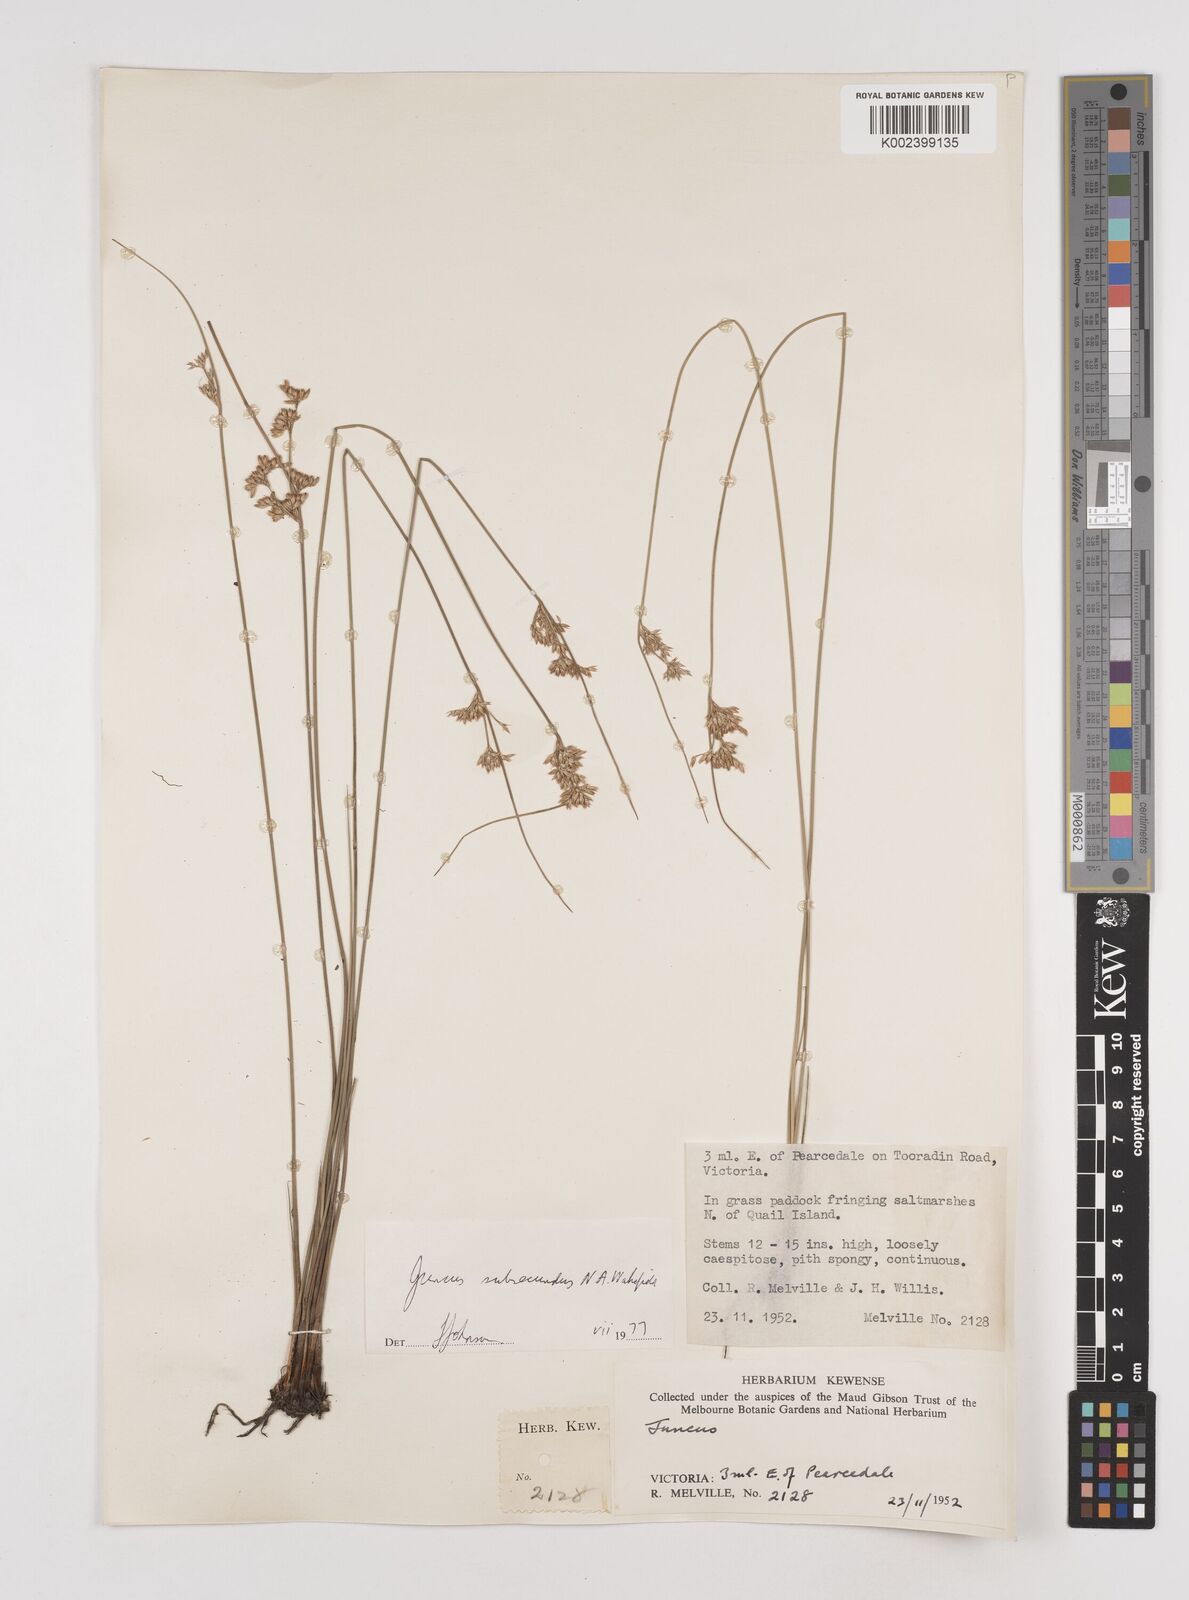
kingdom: Plantae
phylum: Tracheophyta
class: Liliopsida
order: Poales
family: Juncaceae
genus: Juncus
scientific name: Juncus subsecundus
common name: Fingered rush
